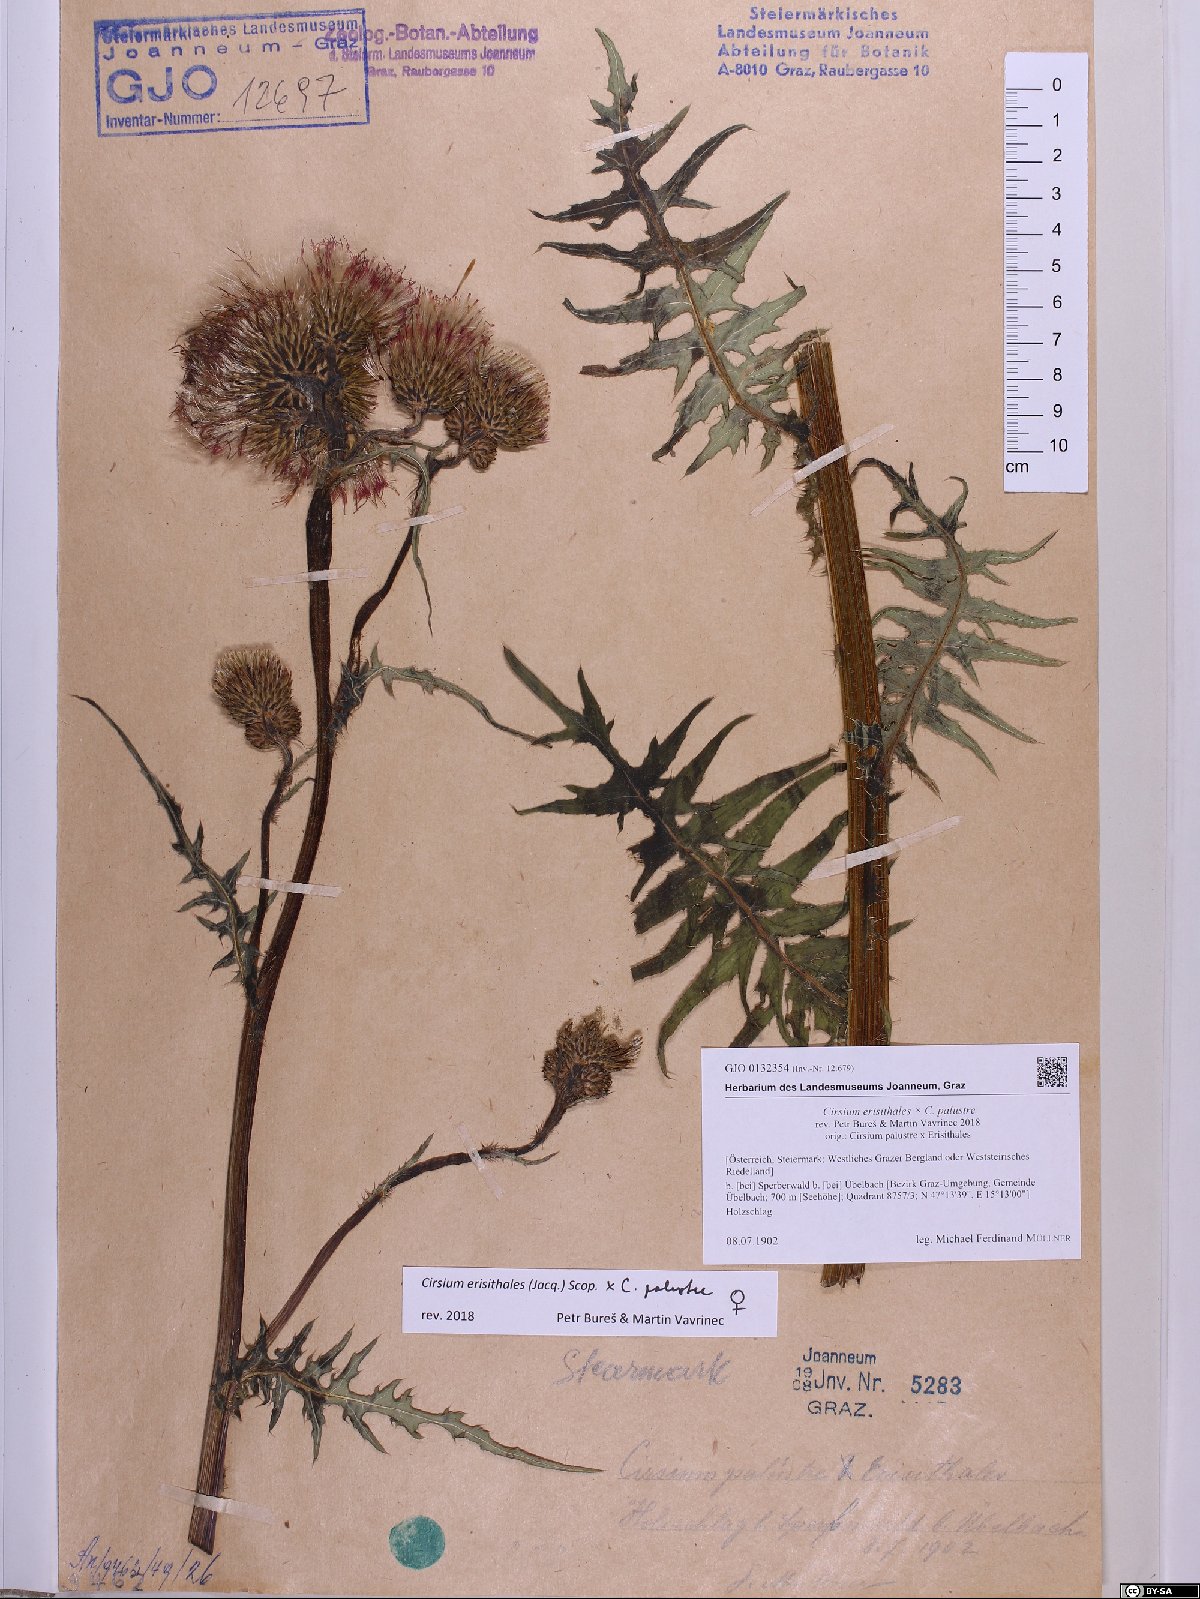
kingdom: Plantae
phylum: Tracheophyta
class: Magnoliopsida
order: Asterales
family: Asteraceae
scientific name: Asteraceae
